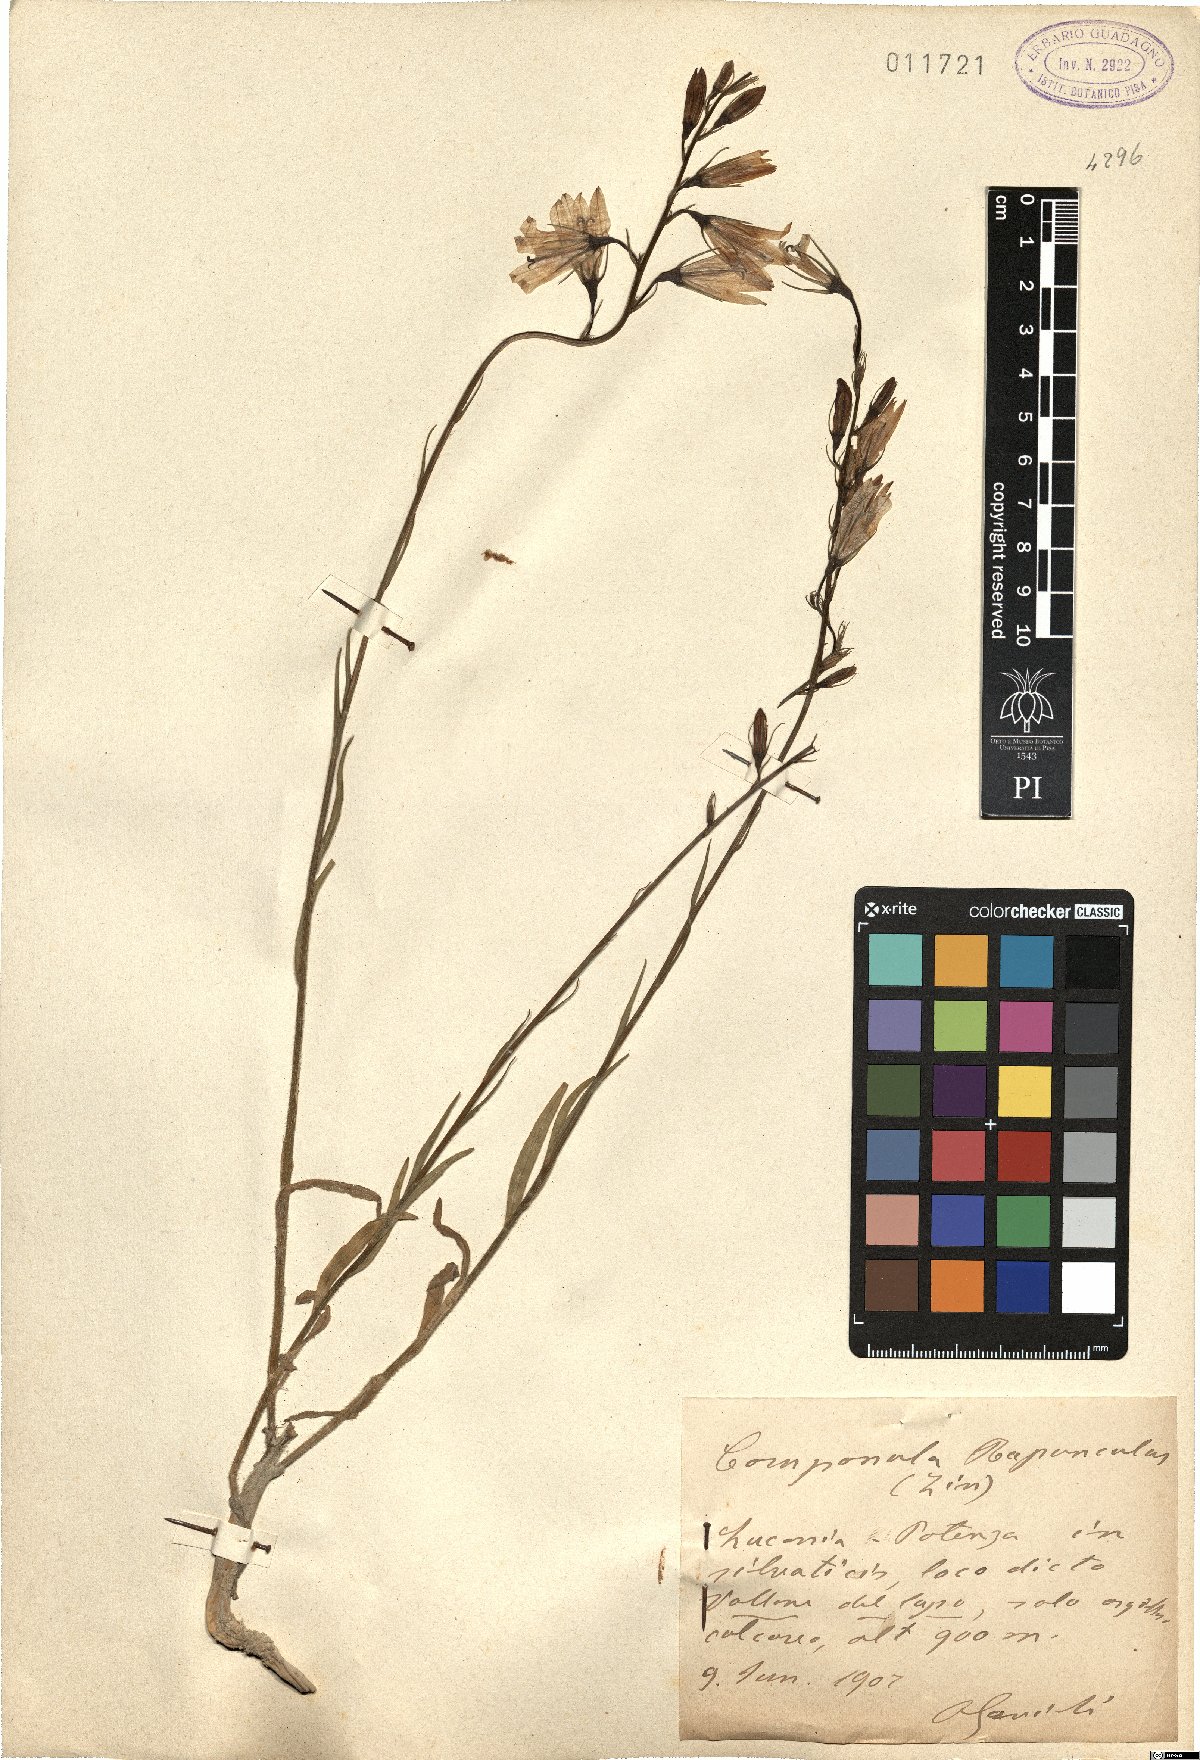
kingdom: Plantae
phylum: Tracheophyta
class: Magnoliopsida
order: Asterales
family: Campanulaceae
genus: Campanula
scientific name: Campanula rapunculus
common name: Rampion bellflower
